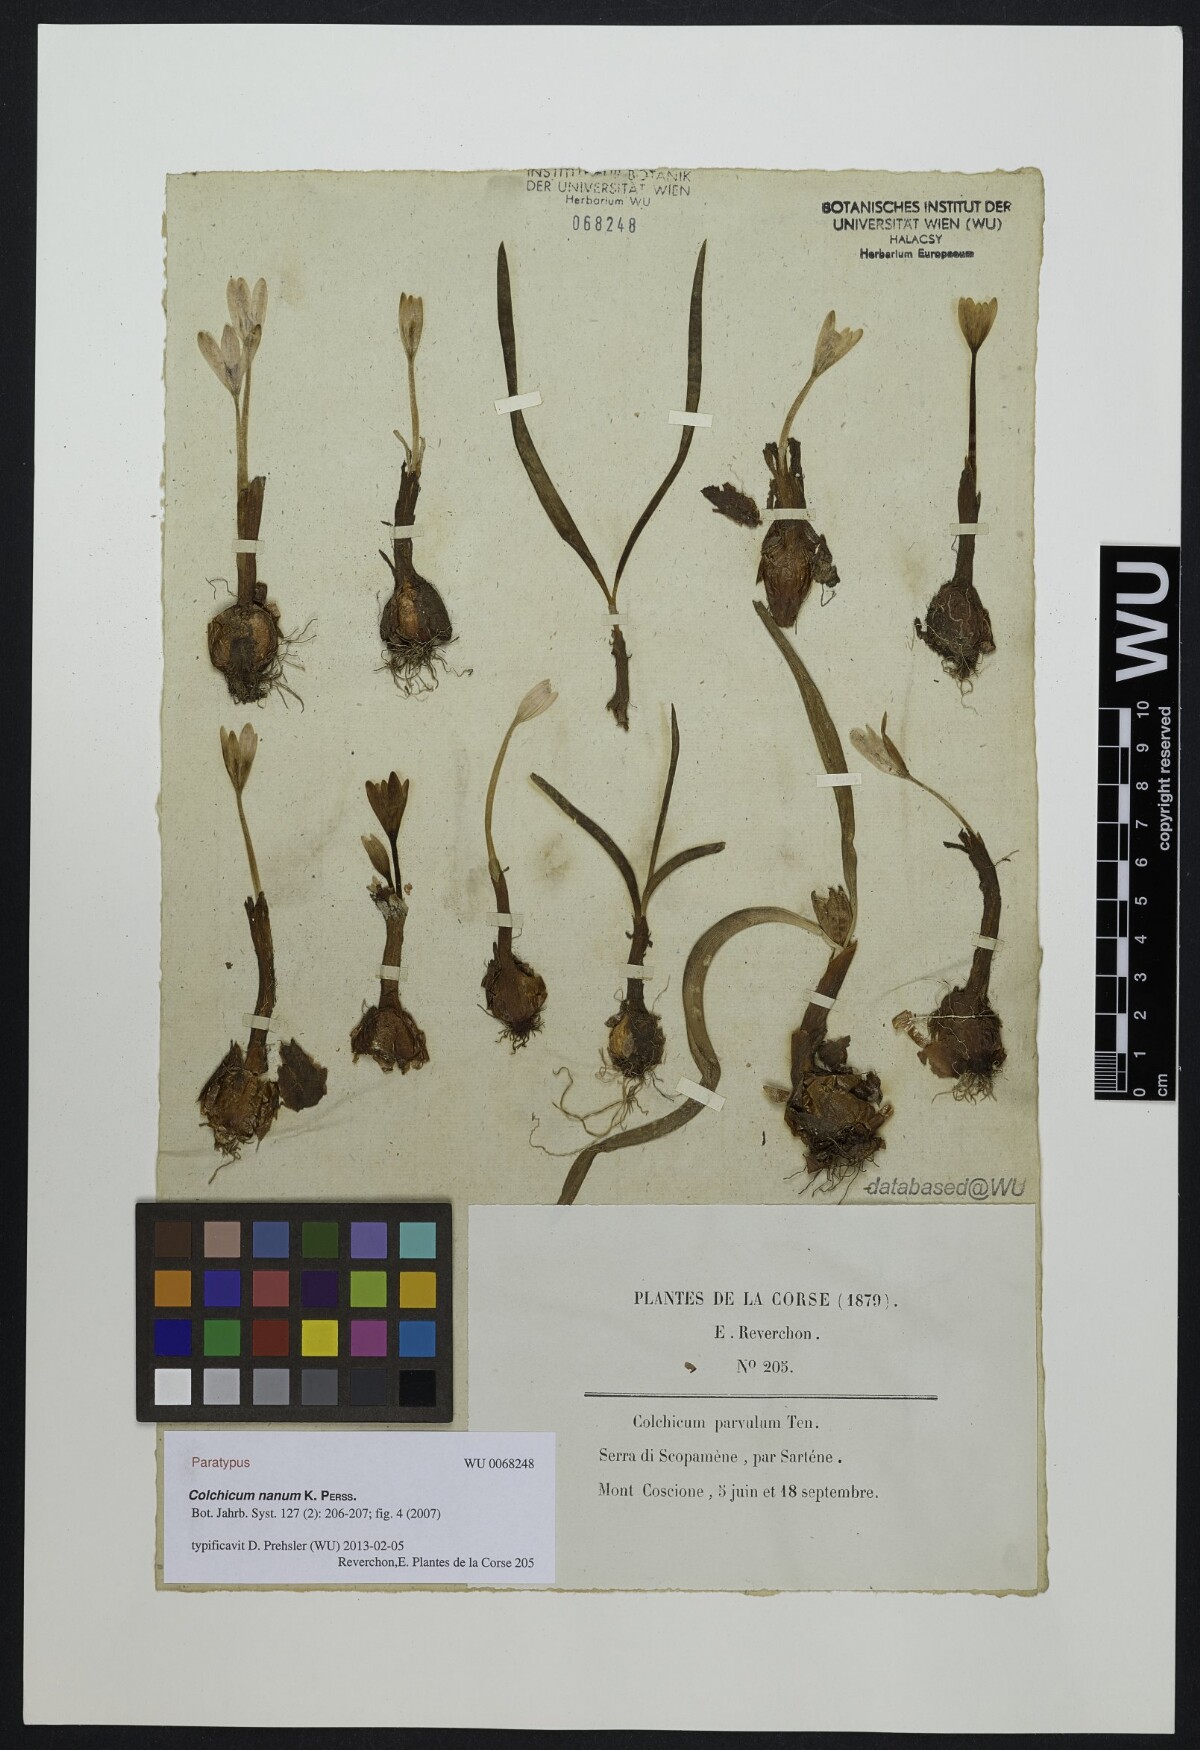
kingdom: Plantae
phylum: Tracheophyta
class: Liliopsida
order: Liliales
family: Colchicaceae
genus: Colchicum
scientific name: Colchicum nanum
